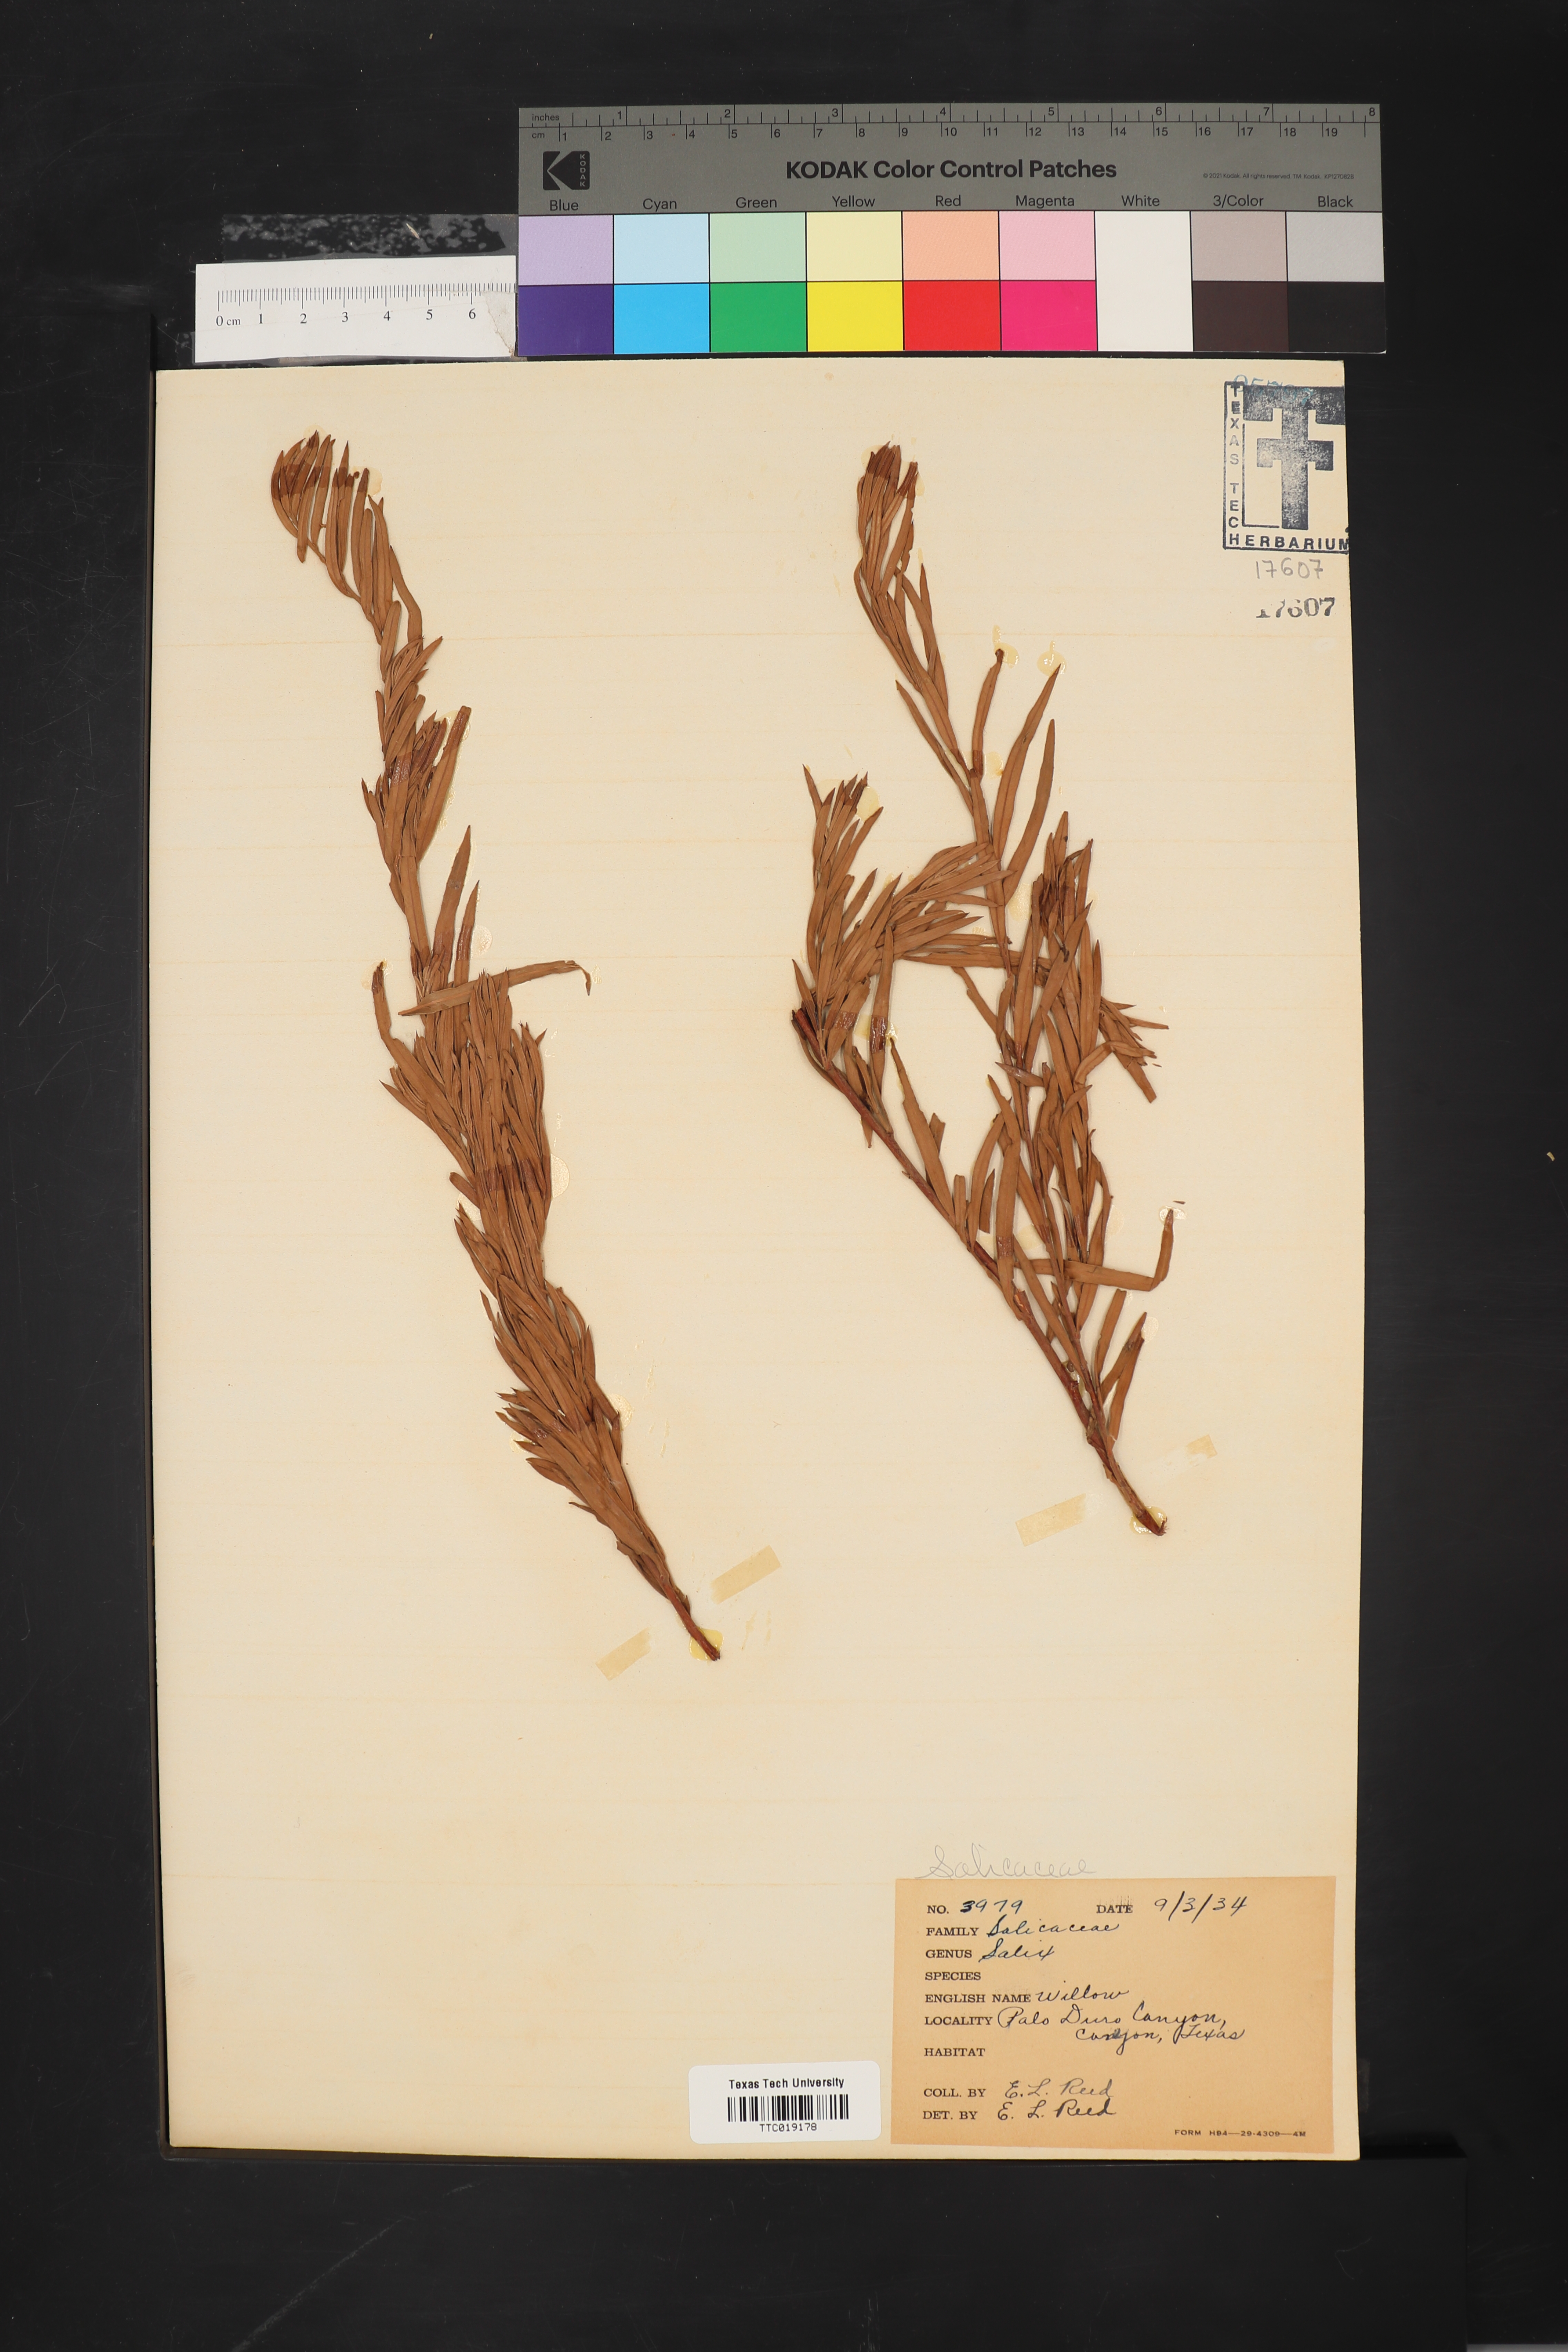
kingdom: Plantae
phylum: Tracheophyta
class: Magnoliopsida
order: Malpighiales
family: Salicaceae
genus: Salix
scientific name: Salix interior
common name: Sandbar willow
